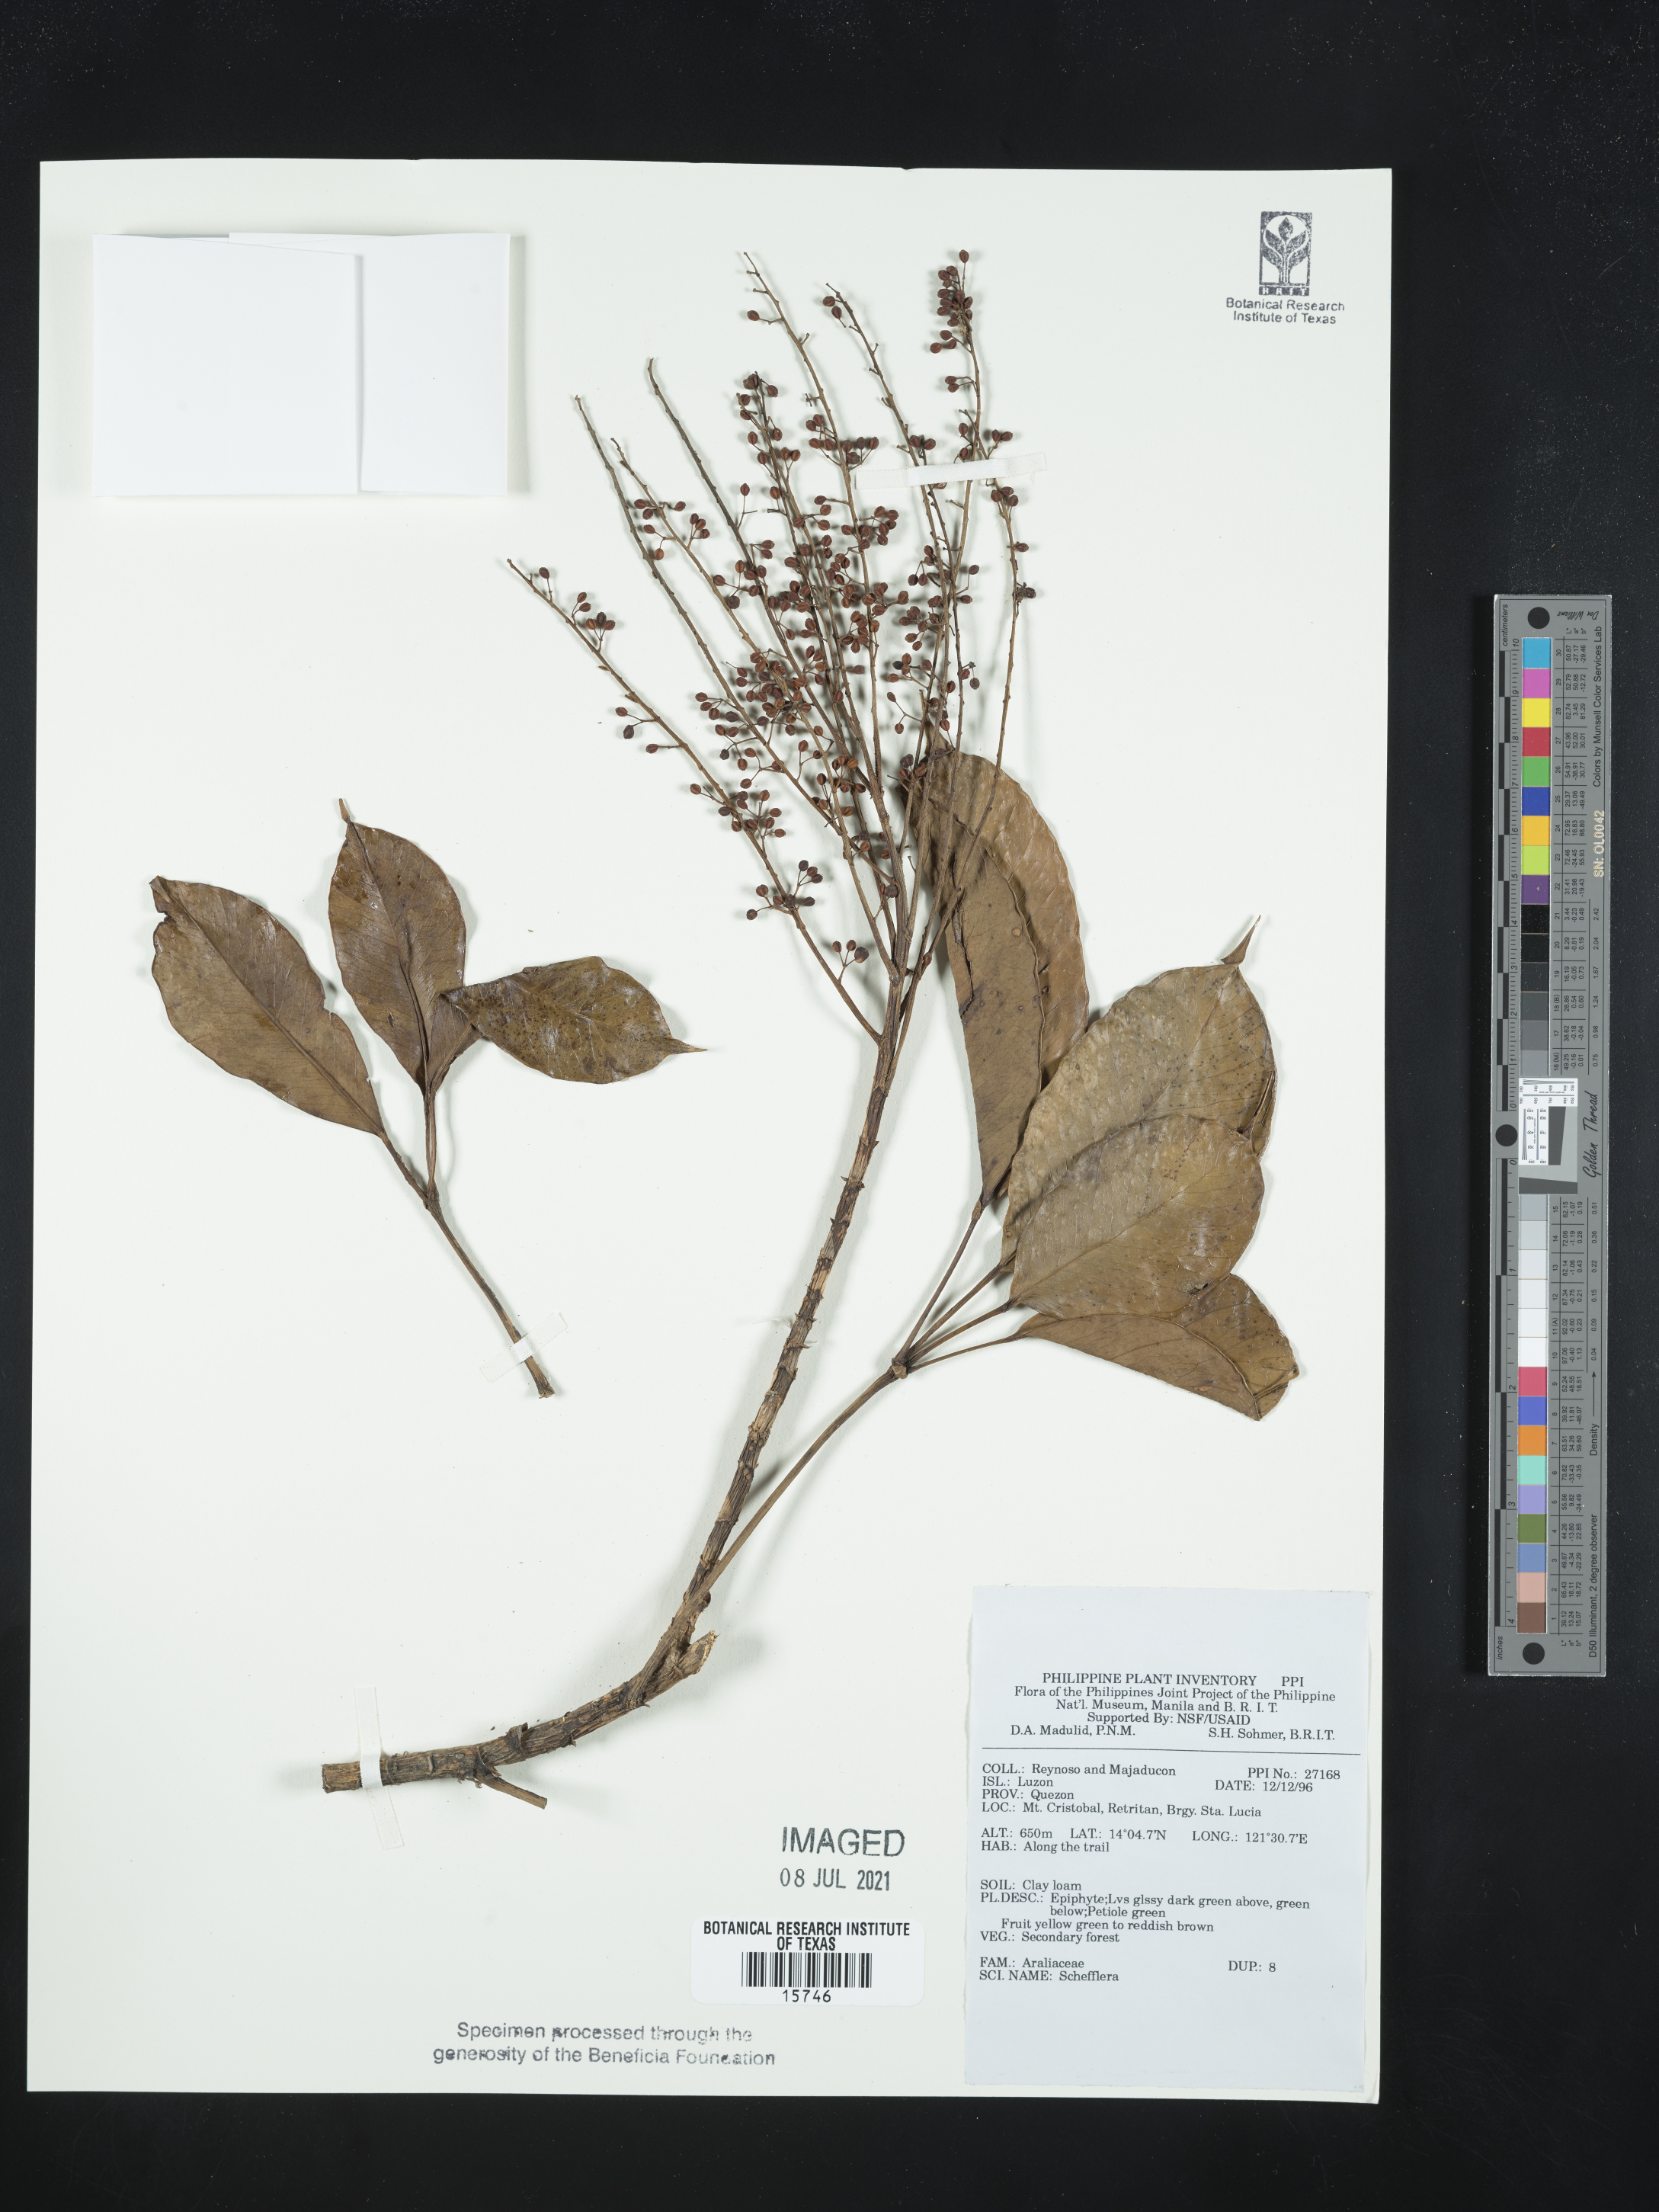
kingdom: Plantae
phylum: Tracheophyta
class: Magnoliopsida
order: Apiales
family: Araliaceae
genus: Schefflera
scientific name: Schefflera
